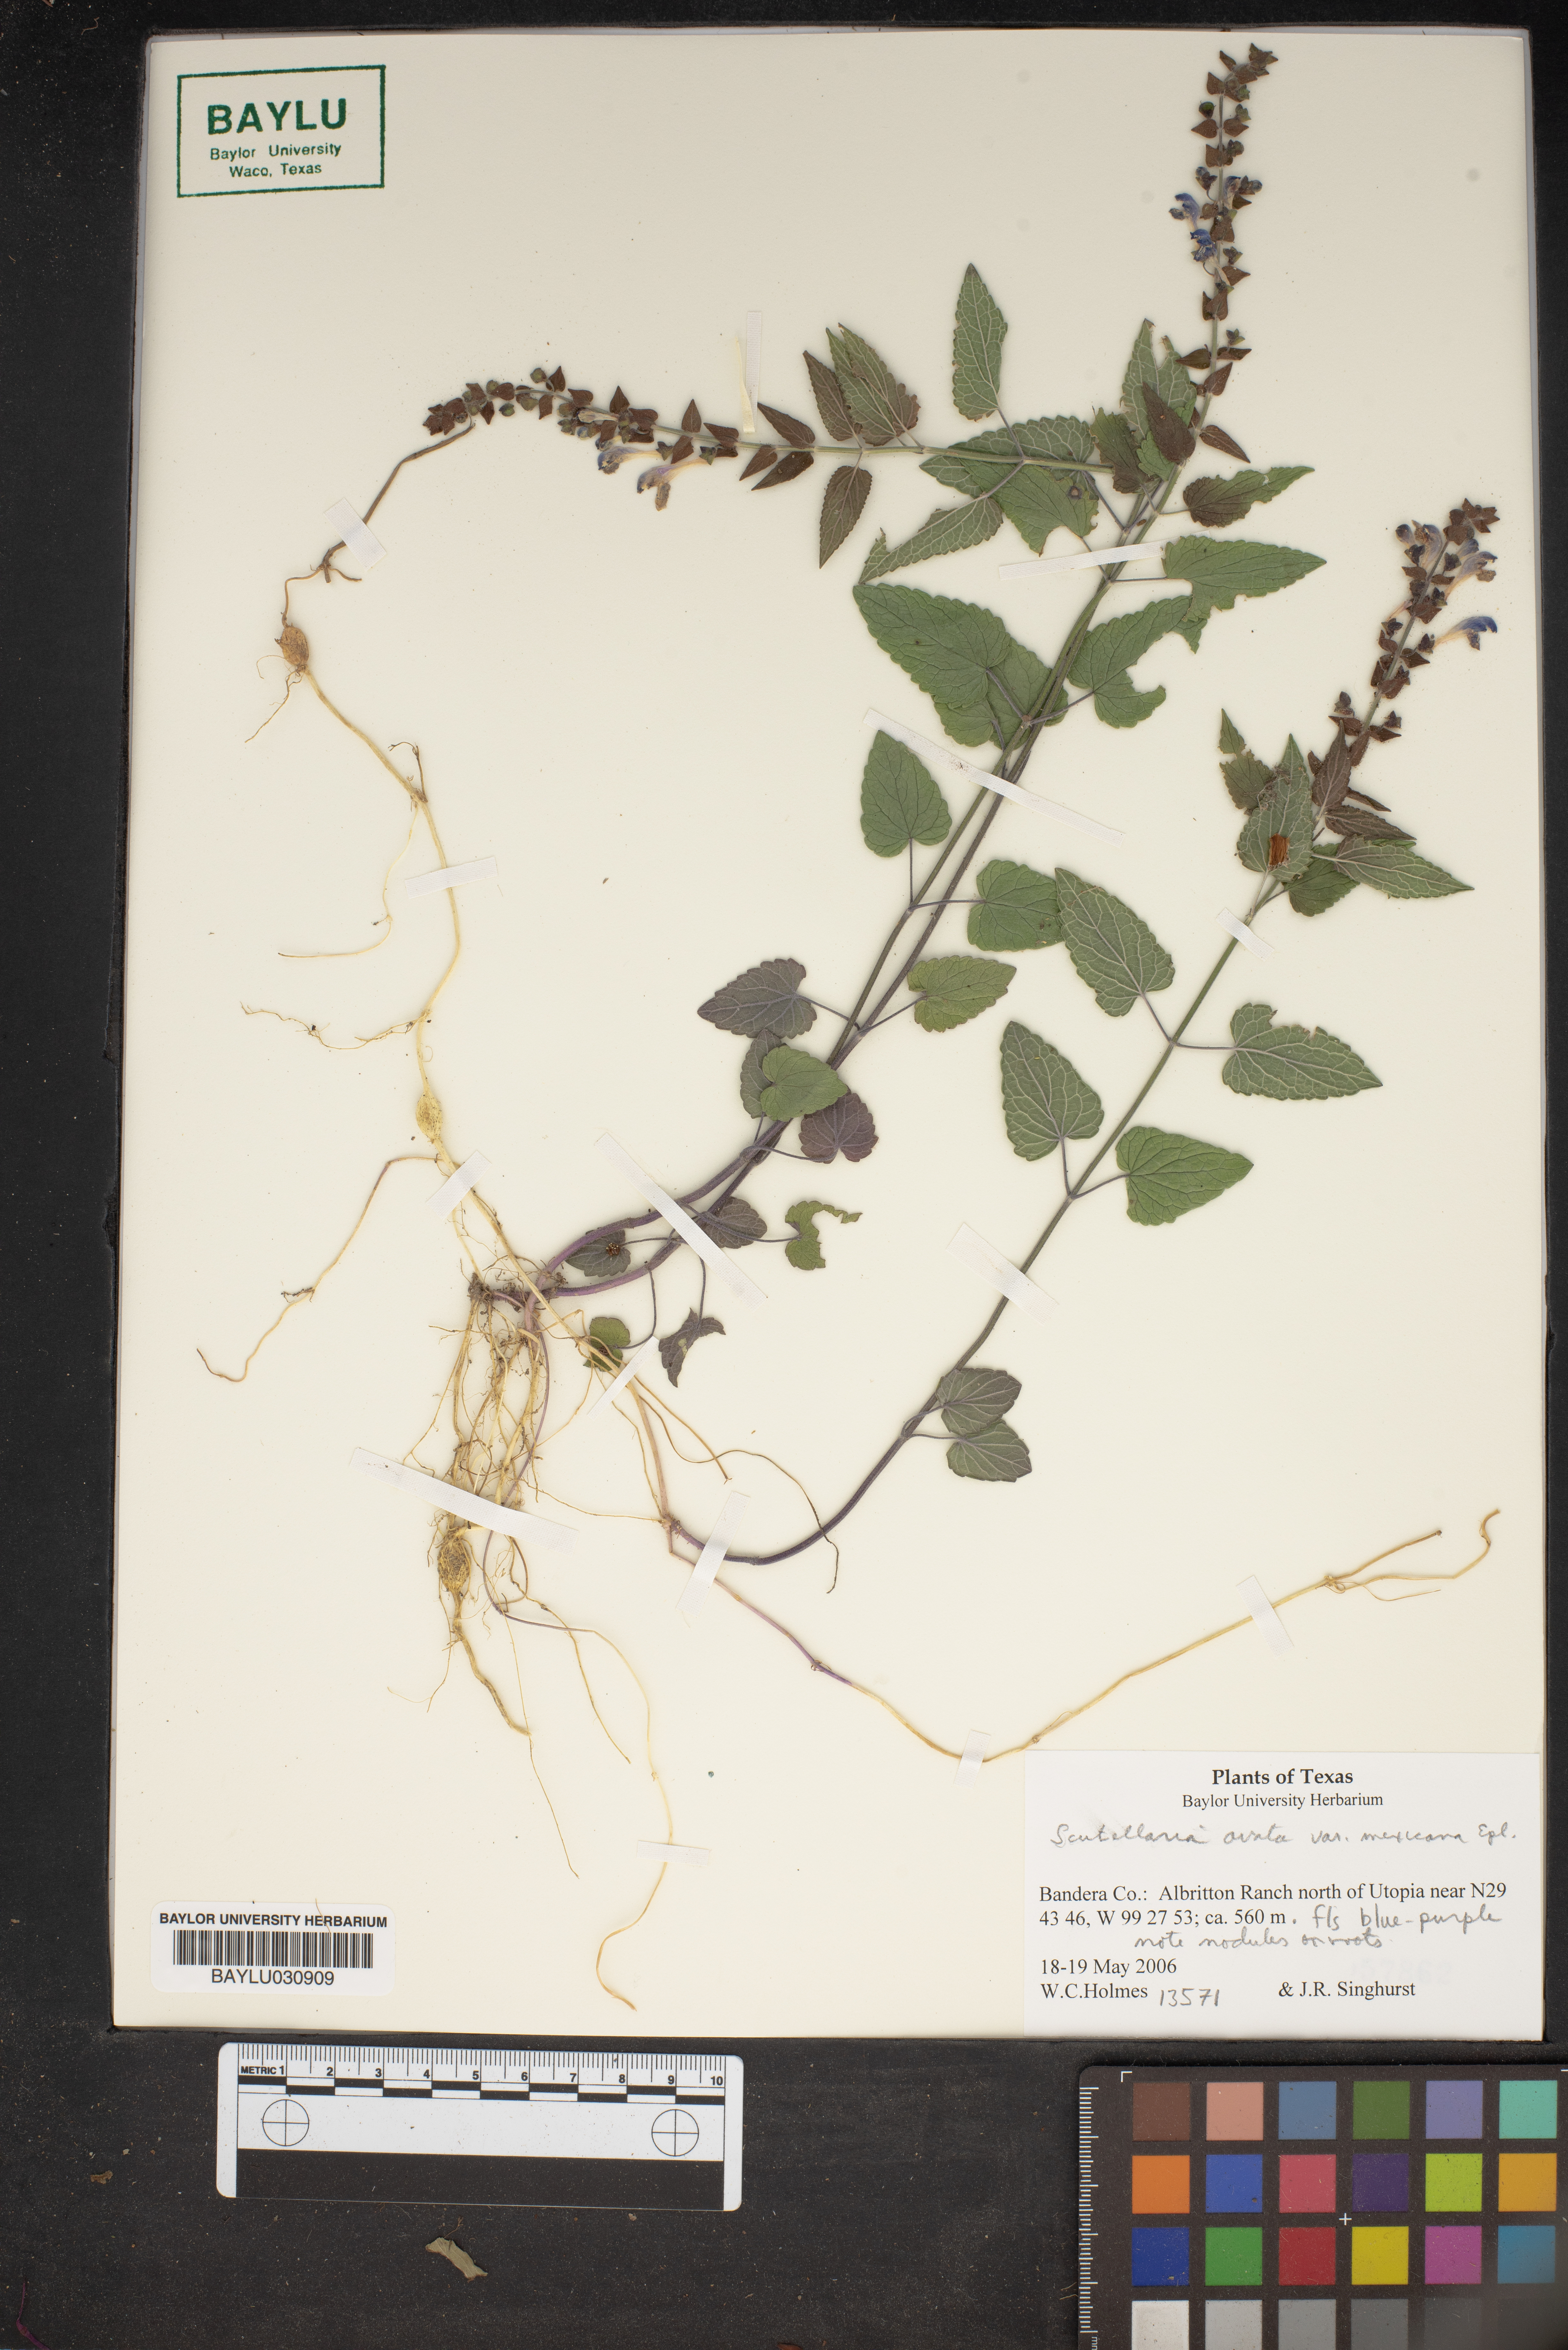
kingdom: Plantae
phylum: Tracheophyta
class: Magnoliopsida
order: Lamiales
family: Lamiaceae
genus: Scutellaria
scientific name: Scutellaria ovata
